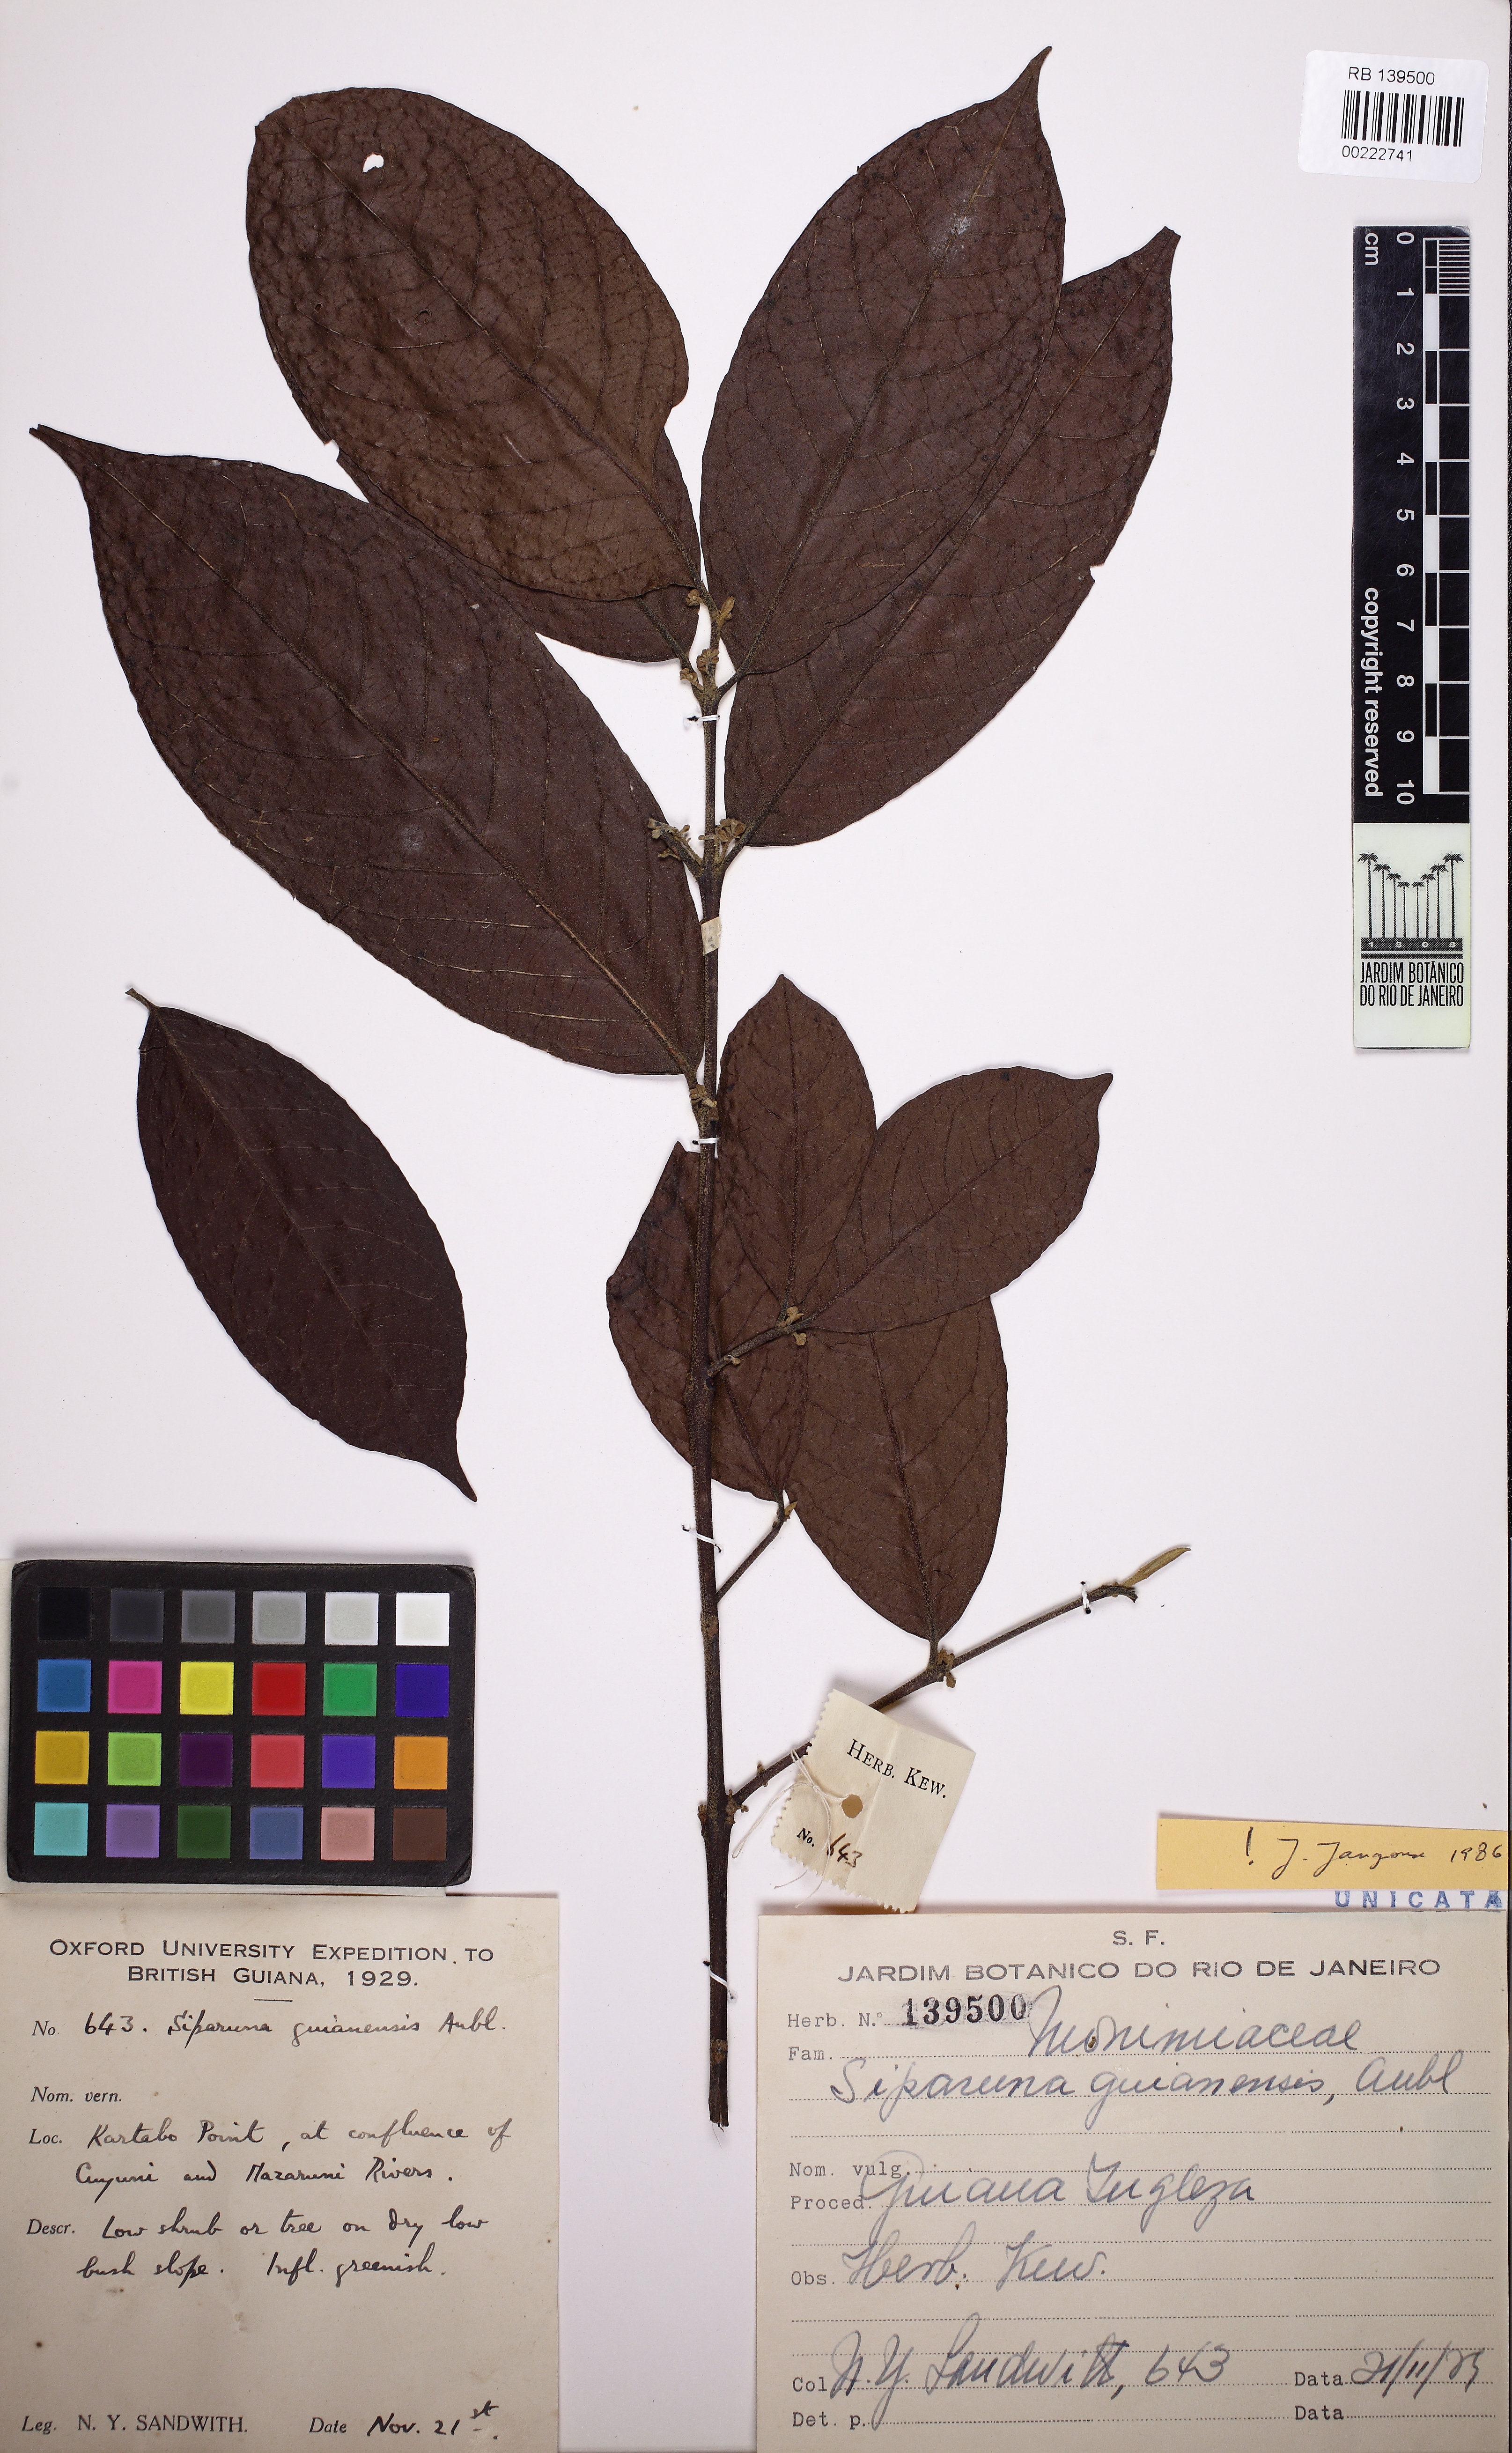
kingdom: Plantae
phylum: Tracheophyta
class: Magnoliopsida
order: Laurales
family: Siparunaceae
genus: Siparuna
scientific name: Siparuna guianensis
